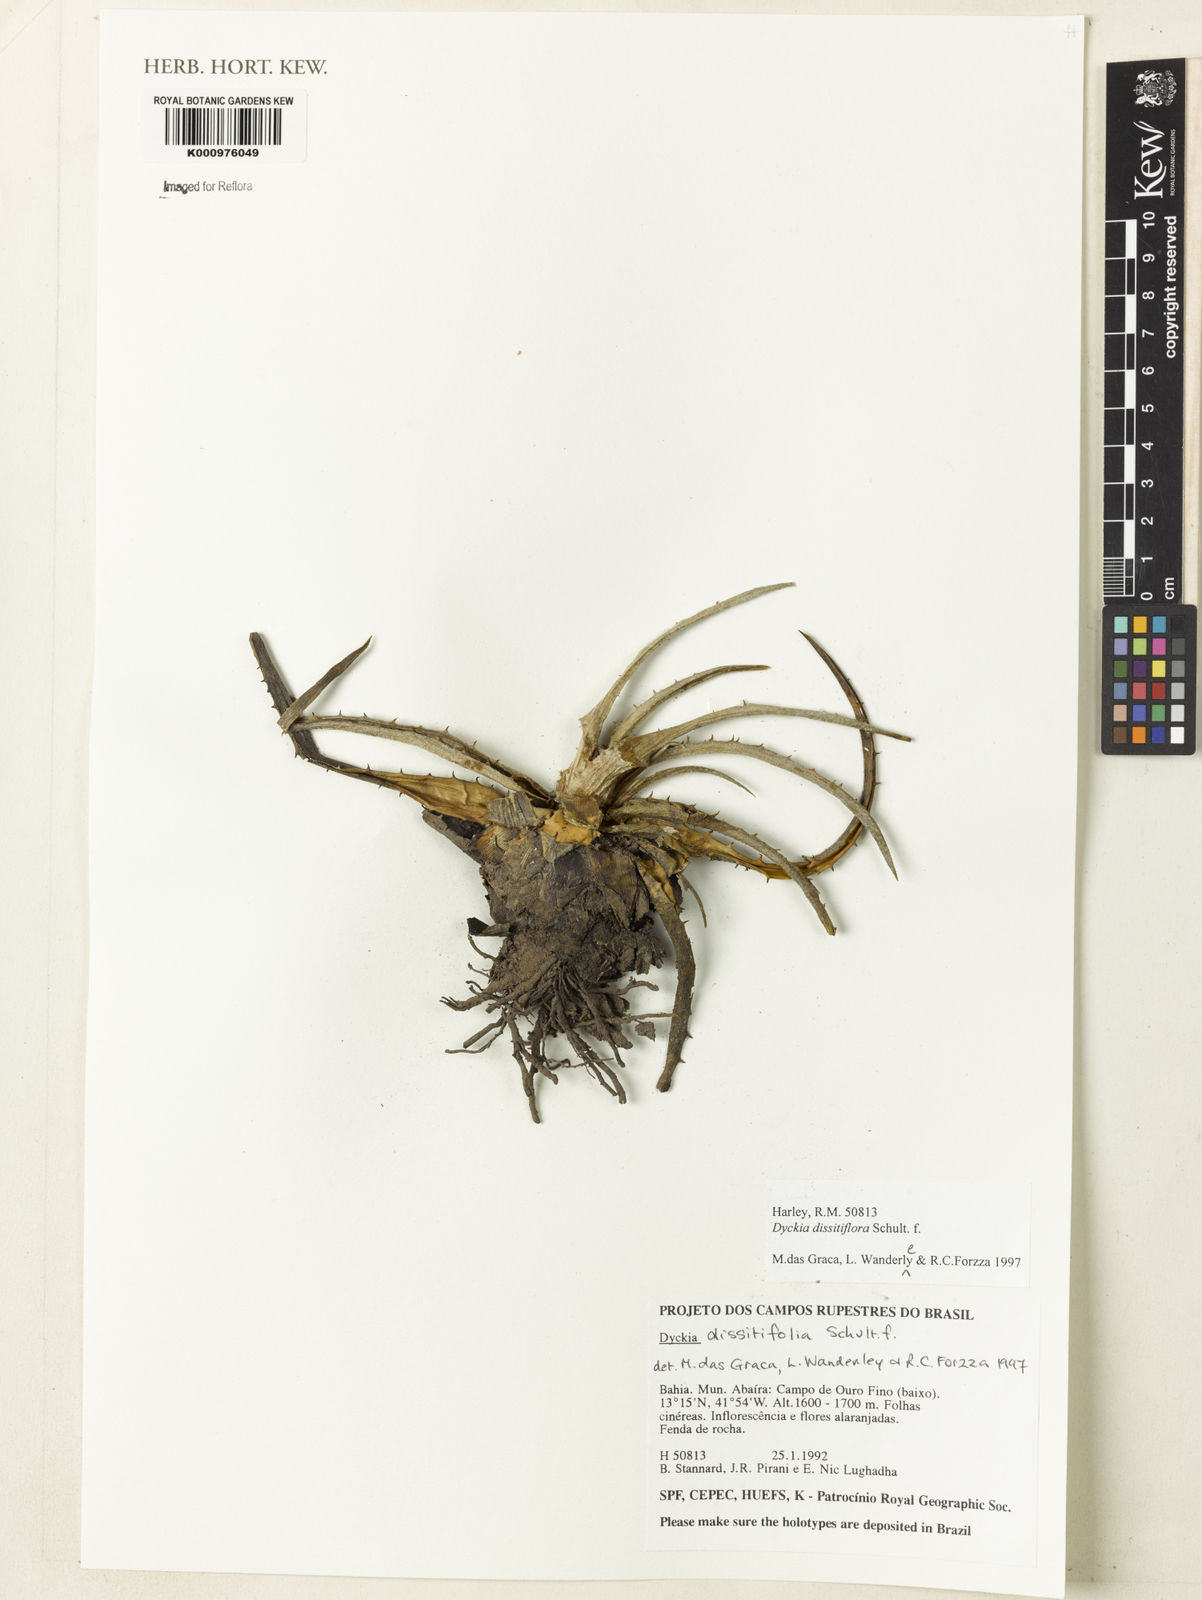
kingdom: Plantae
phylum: Tracheophyta
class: Liliopsida
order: Poales
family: Bromeliaceae
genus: Dyckia
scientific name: Dyckia dissitiflora
